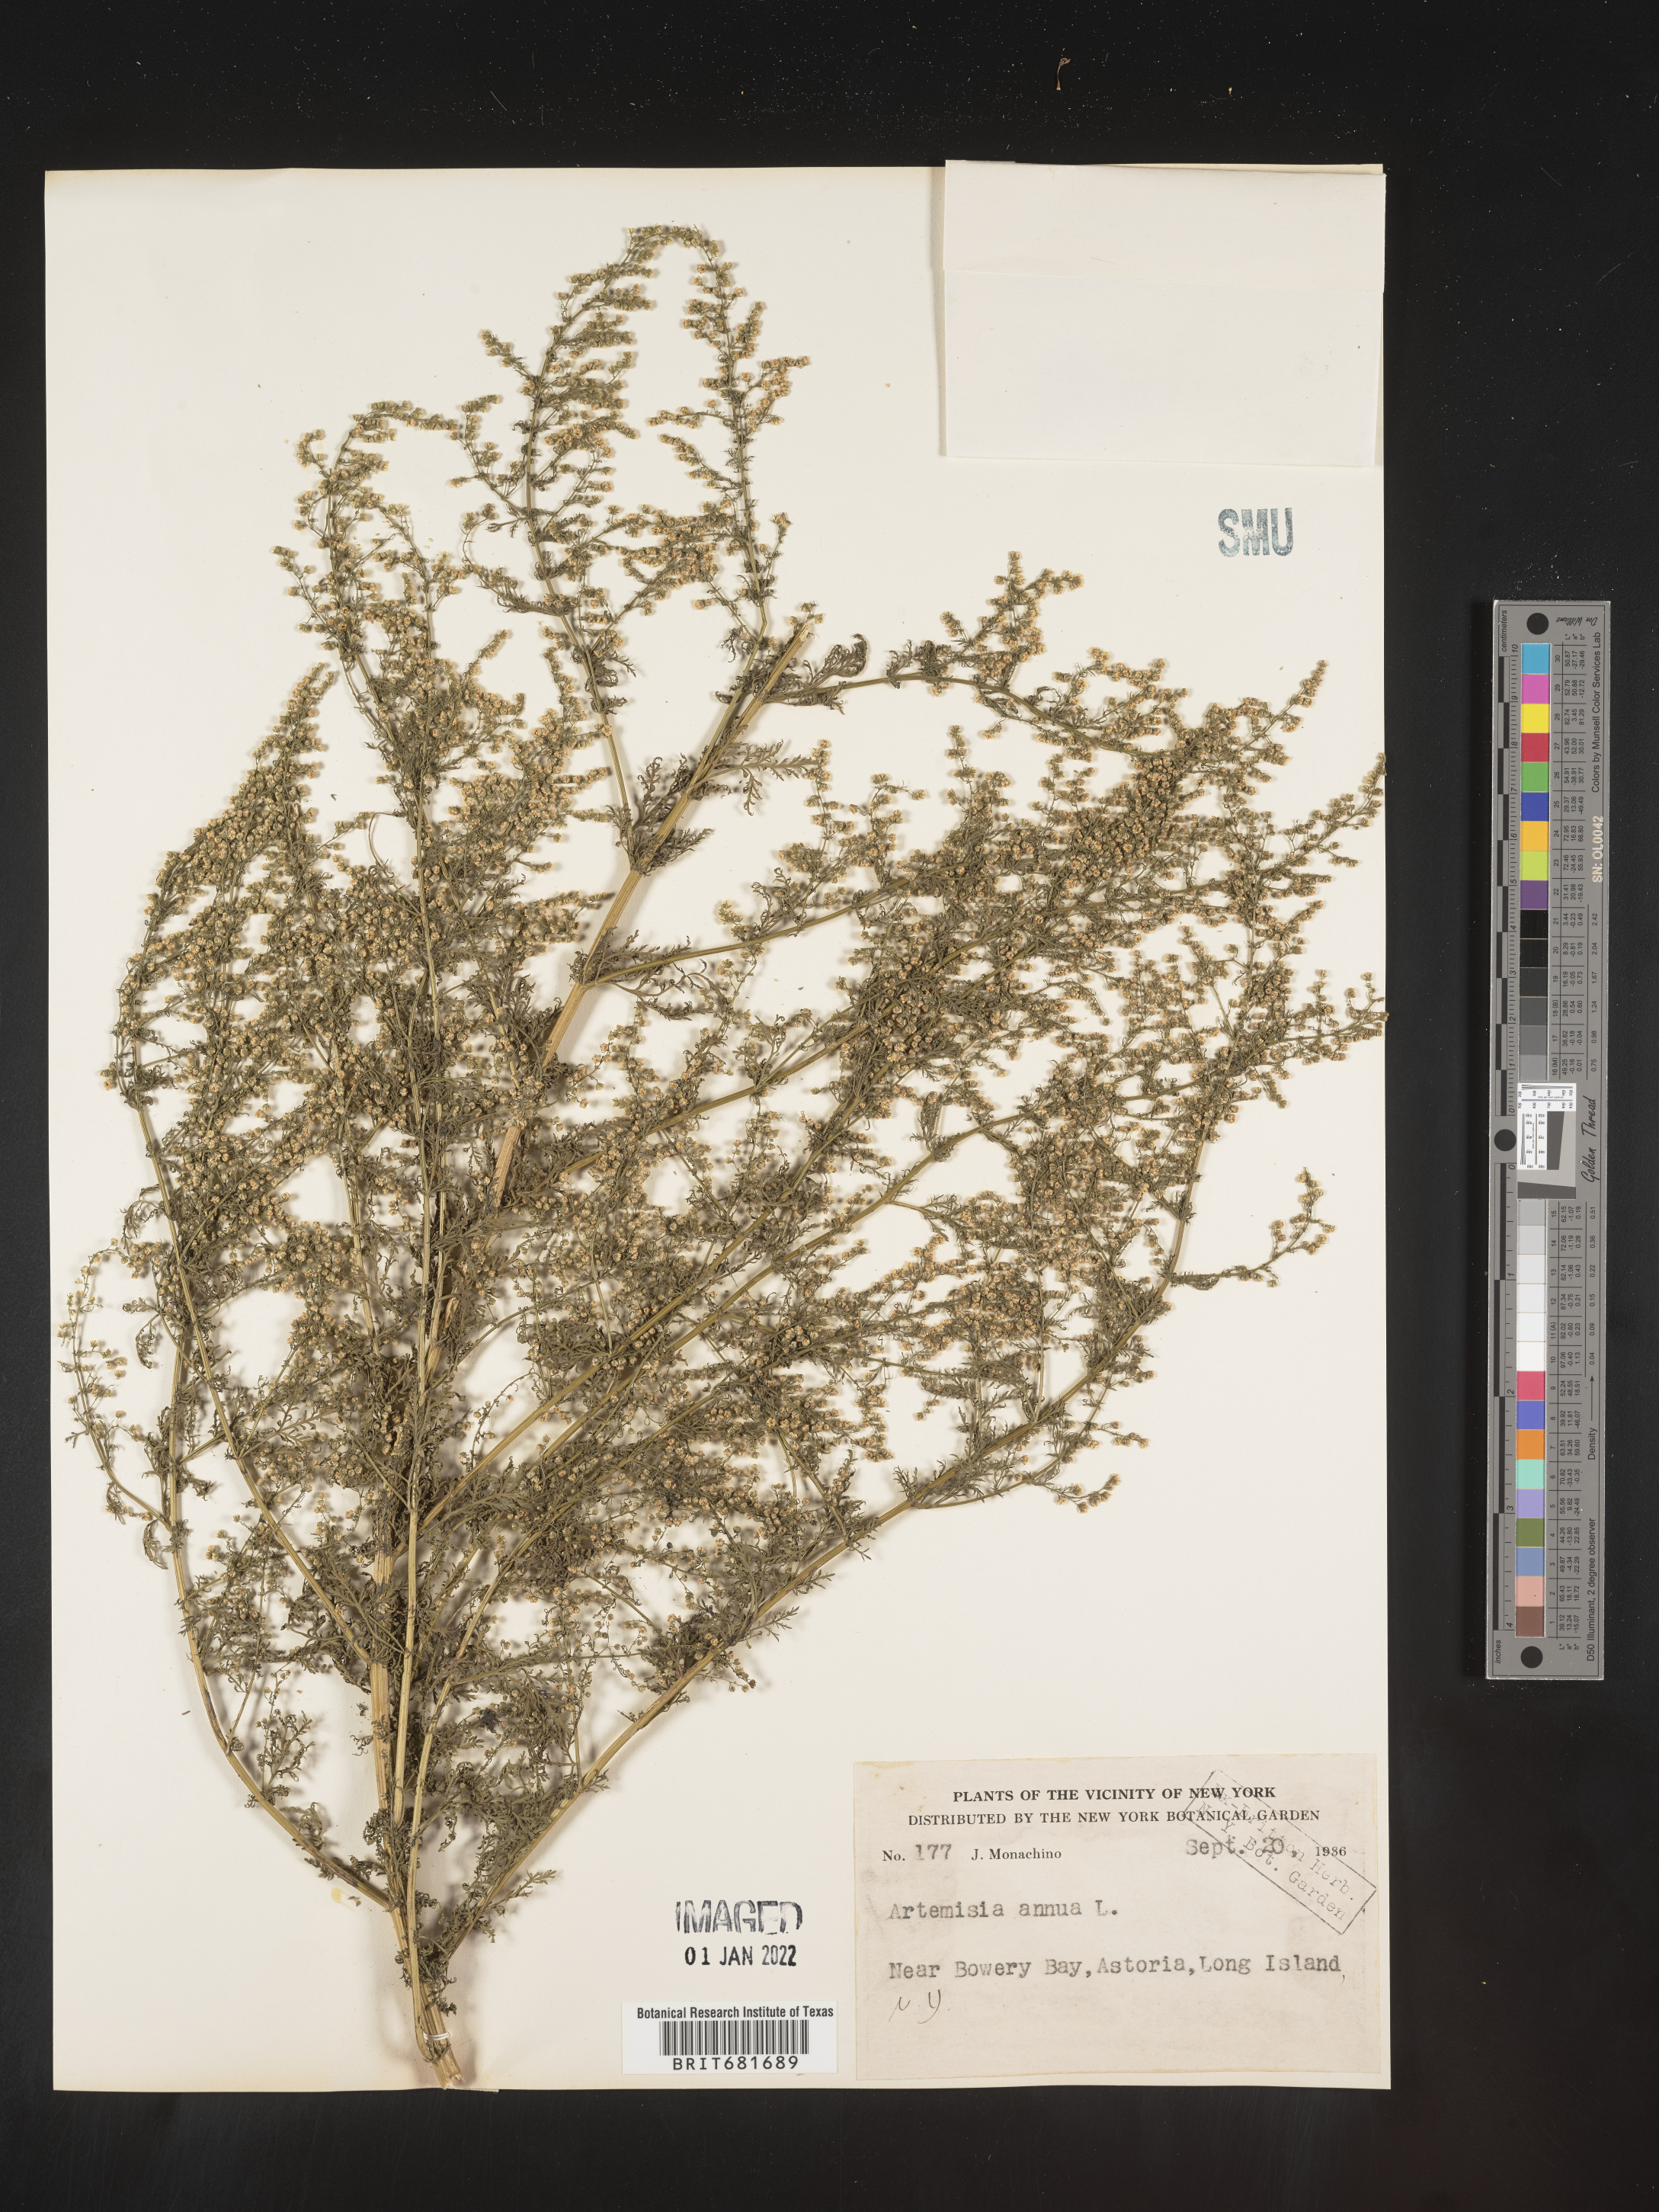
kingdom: Plantae
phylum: Tracheophyta
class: Magnoliopsida
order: Asterales
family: Asteraceae
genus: Artemisia
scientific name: Artemisia annua
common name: Sweet sagewort
